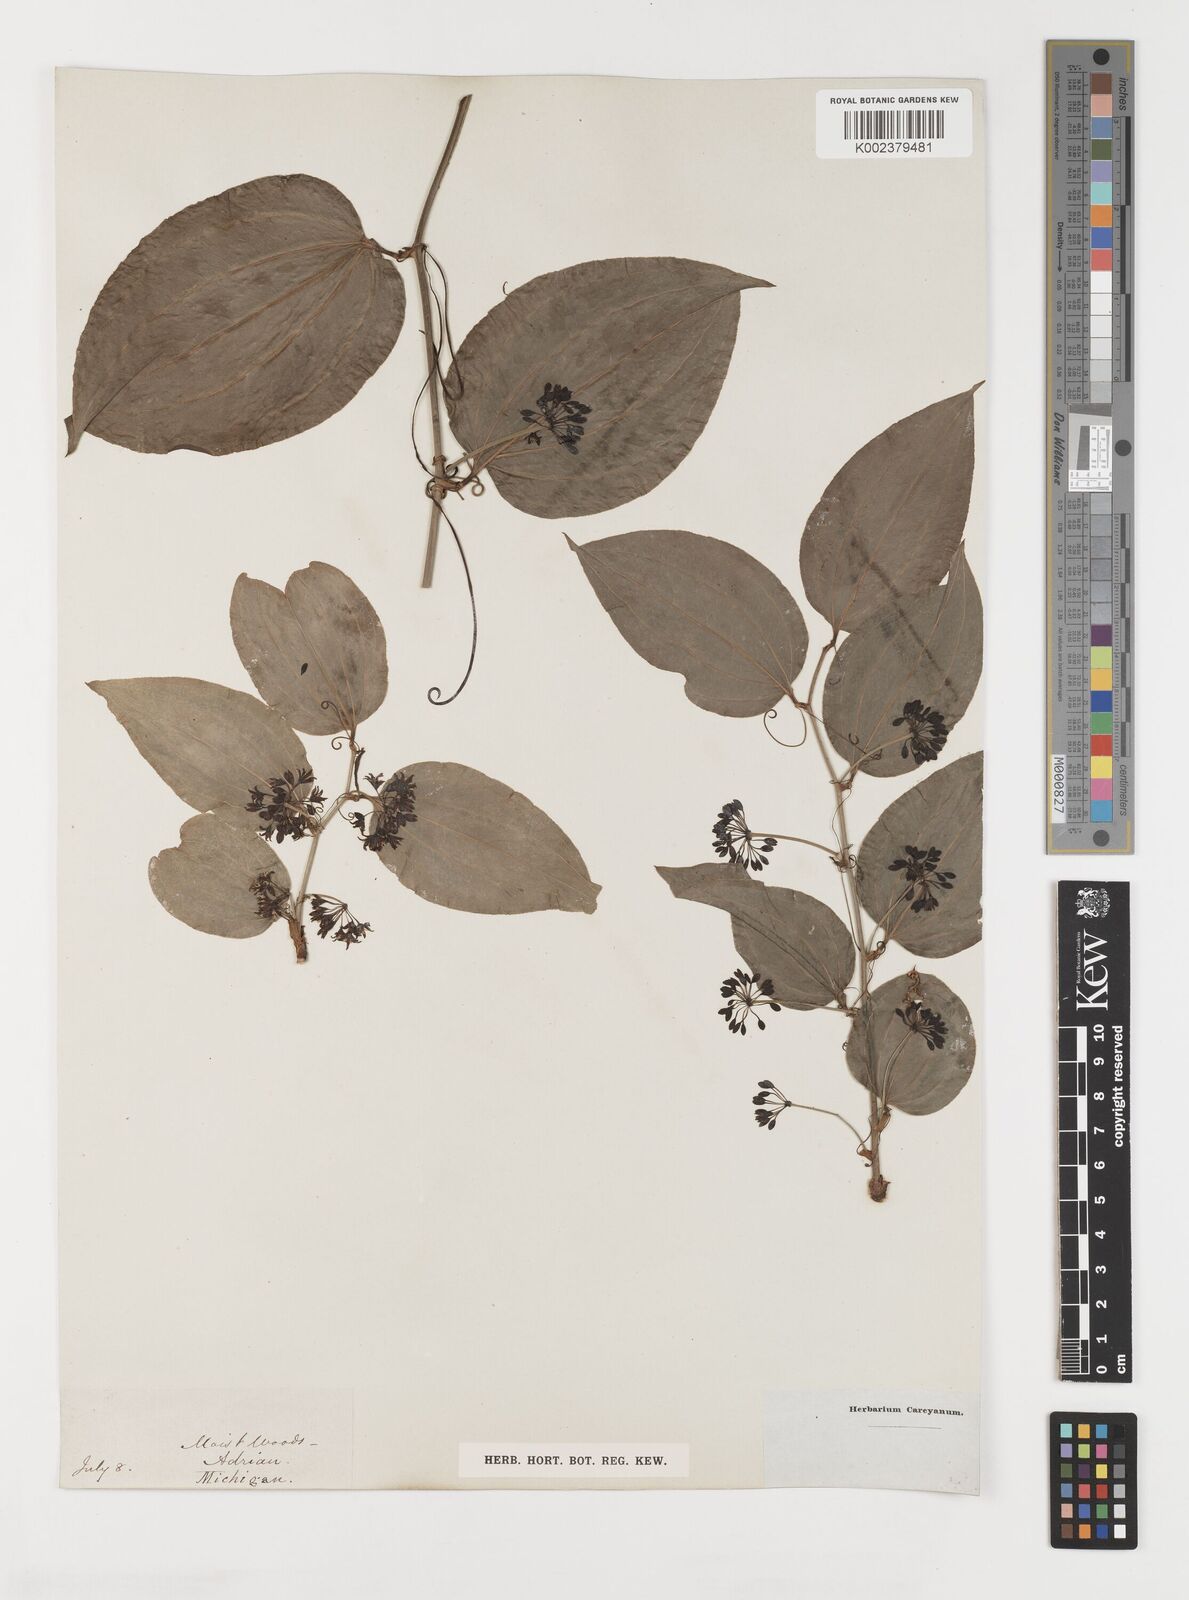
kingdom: Plantae
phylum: Tracheophyta
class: Liliopsida
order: Liliales
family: Smilacaceae
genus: Smilax
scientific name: Smilax
